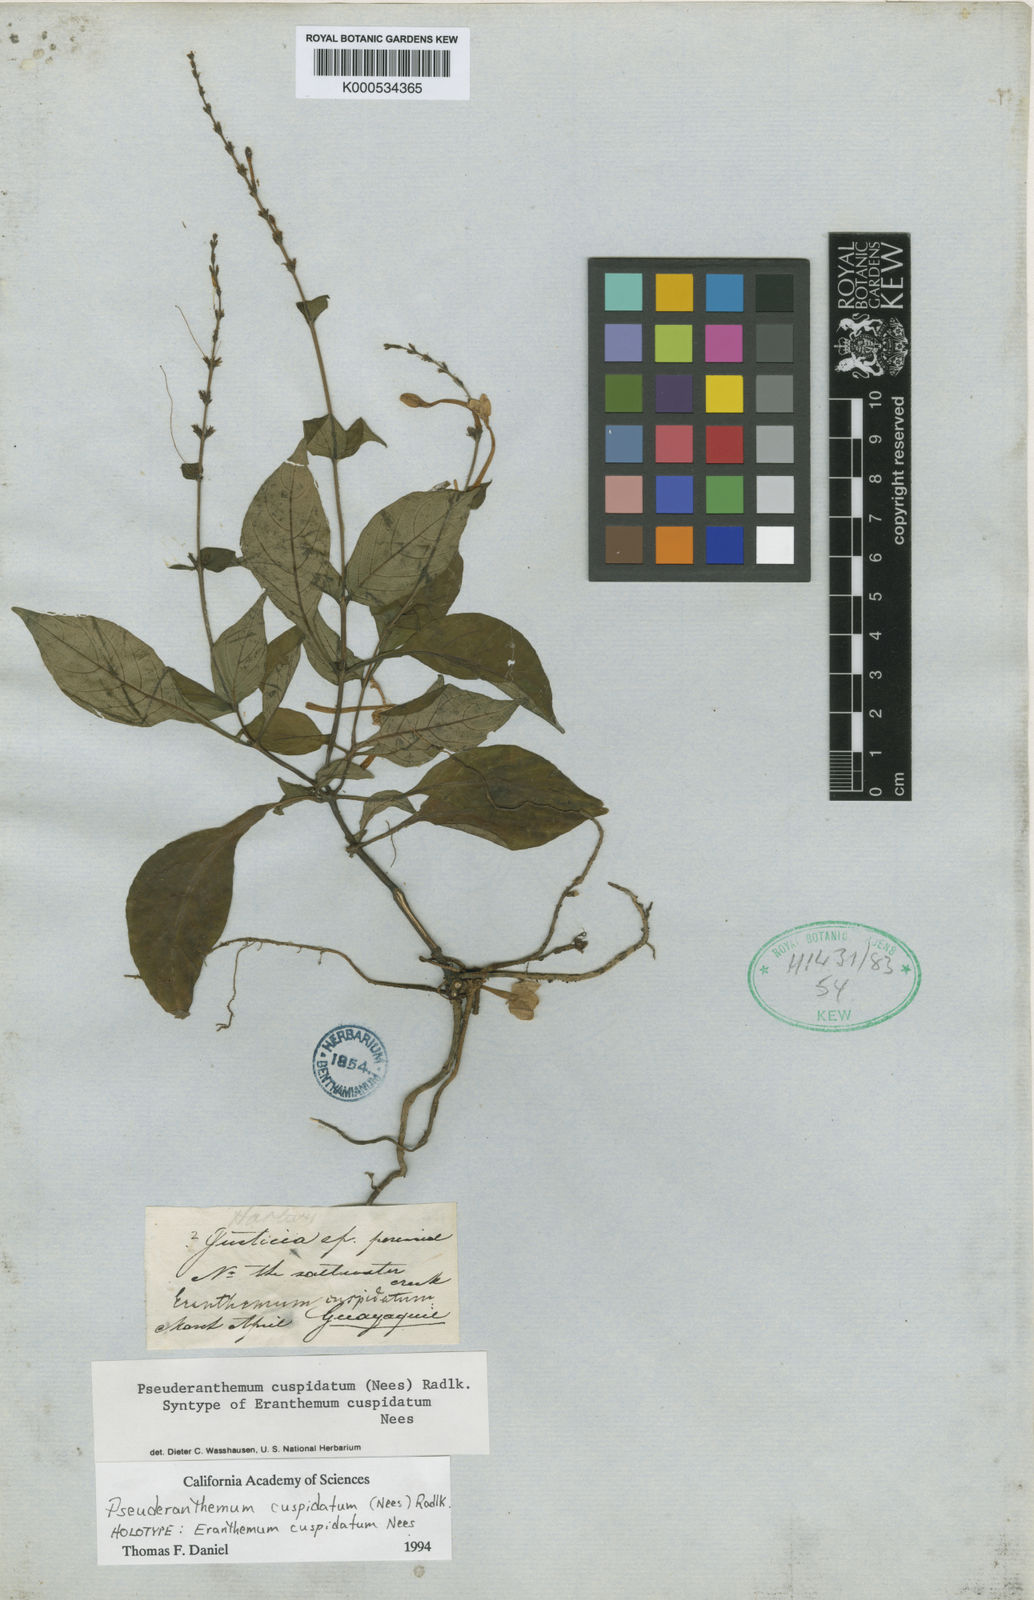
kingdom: Plantae
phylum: Tracheophyta
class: Magnoliopsida
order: Lamiales
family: Acanthaceae
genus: Pseuderanthemum
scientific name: Pseuderanthemum cuspidatum
